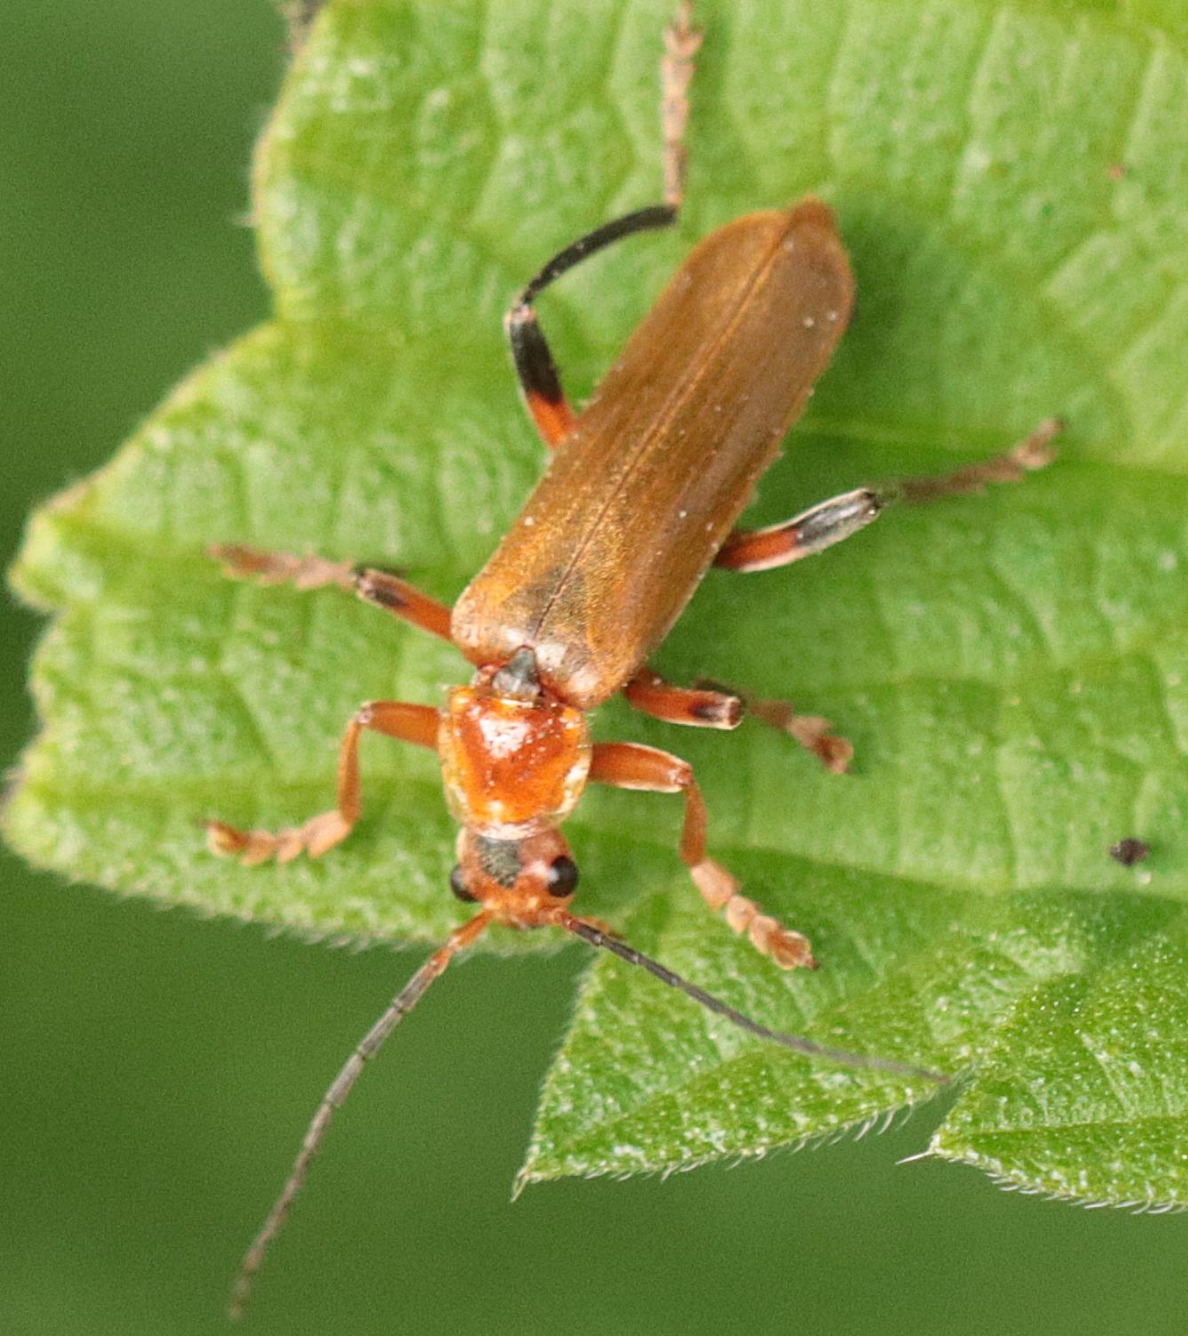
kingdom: Animalia
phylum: Arthropoda
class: Insecta
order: Coleoptera
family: Cantharidae
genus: Cantharis
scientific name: Cantharis livida
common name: Gul blødvinge
